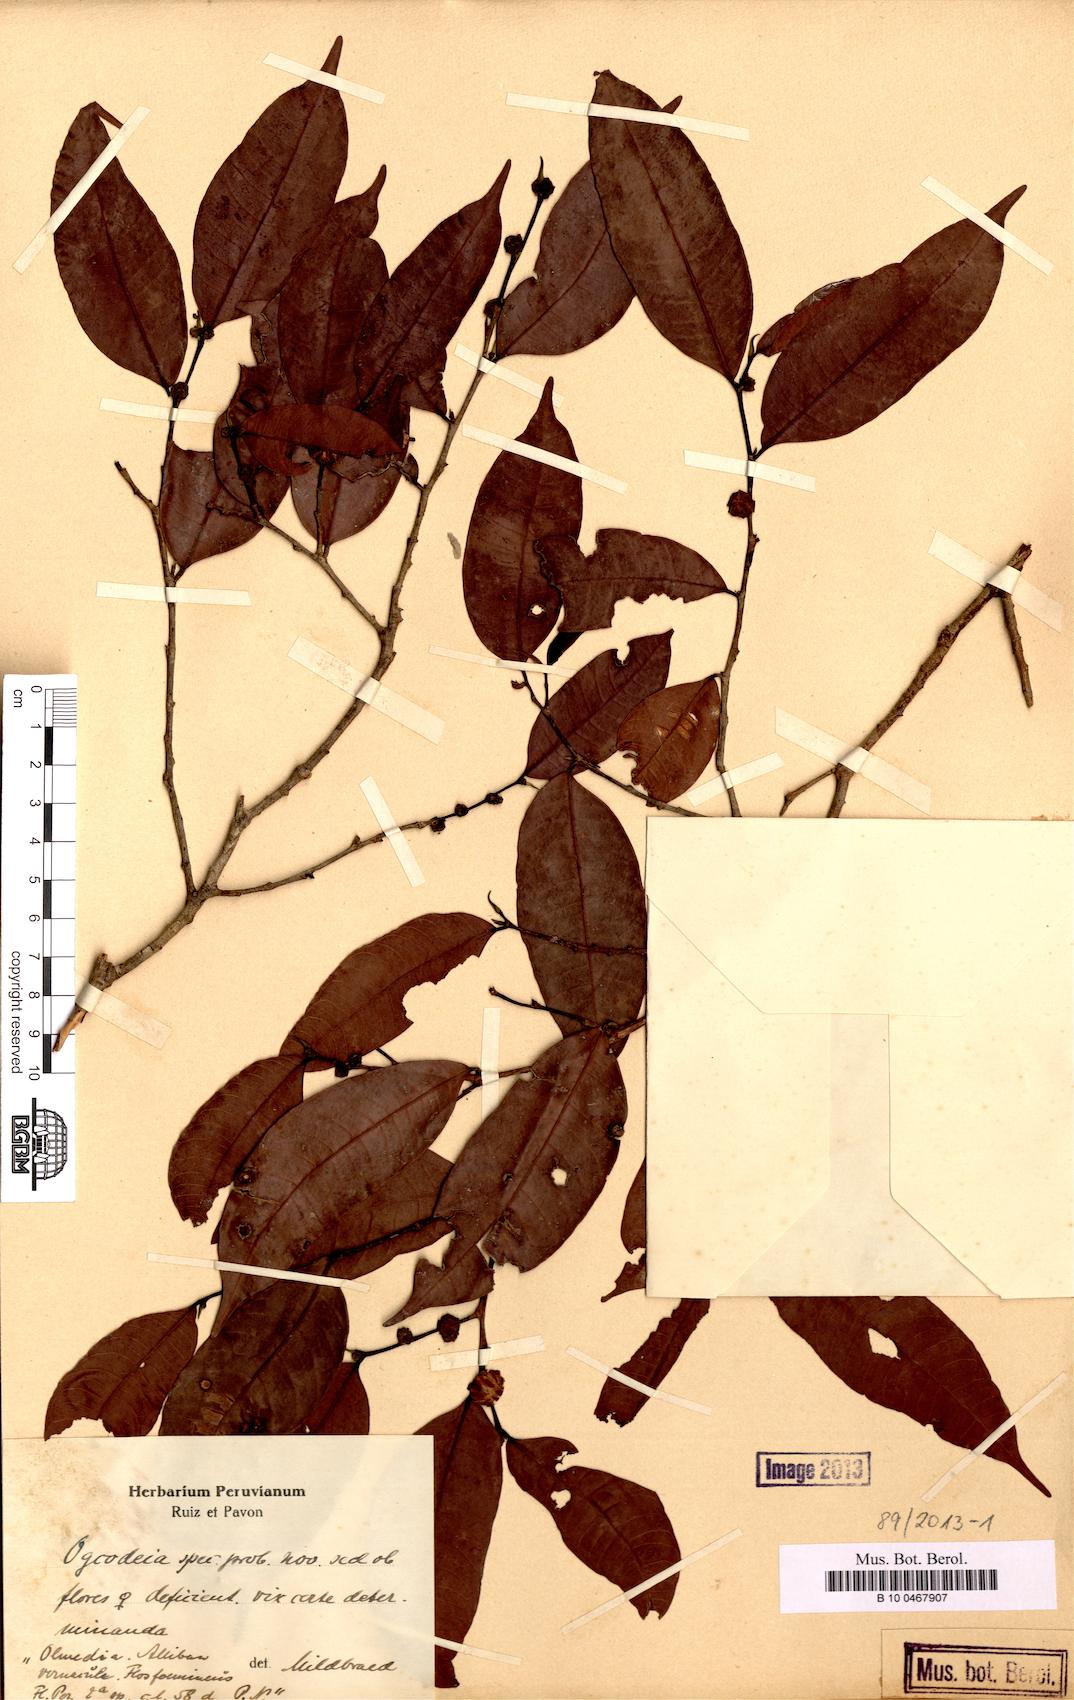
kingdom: Plantae
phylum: Tracheophyta
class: Magnoliopsida
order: Rosales
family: Moraceae
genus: Naucleopsis
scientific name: Naucleopsis
